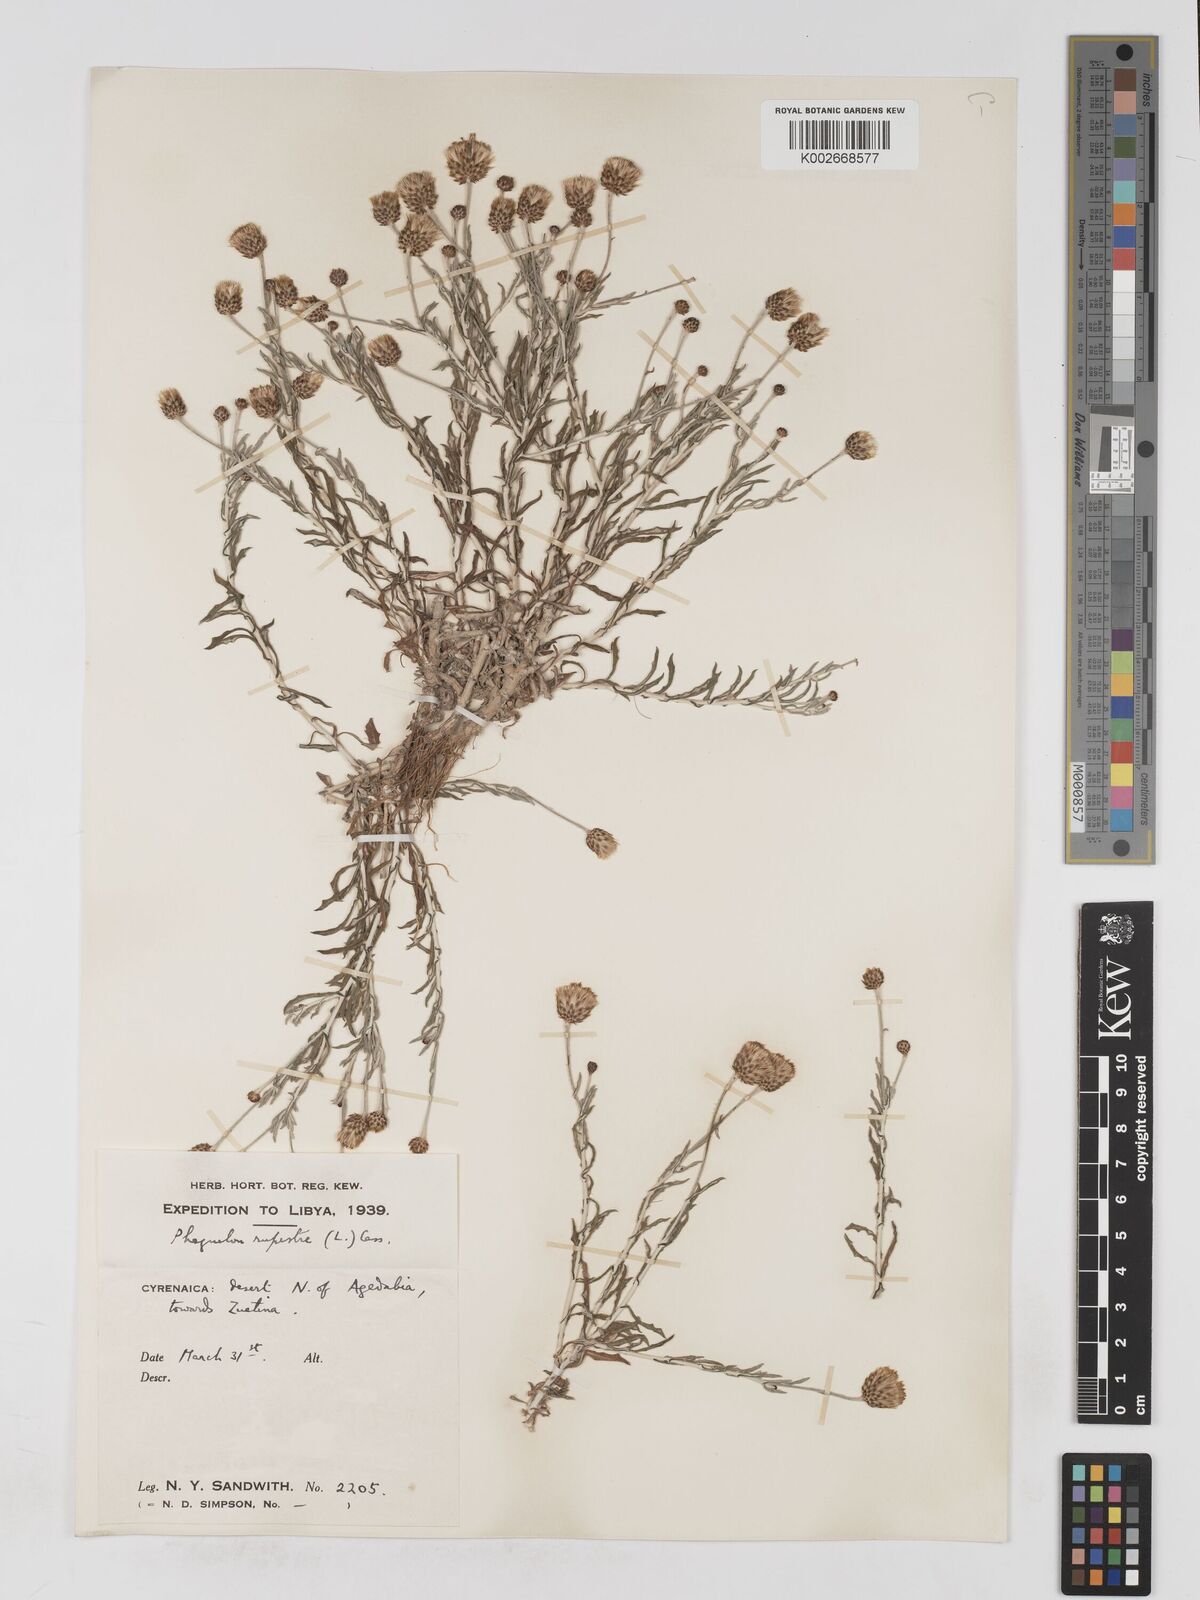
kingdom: Plantae
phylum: Tracheophyta
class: Magnoliopsida
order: Asterales
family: Asteraceae
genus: Phagnalon
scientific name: Phagnalon rupestre
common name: Rock phagnalon
